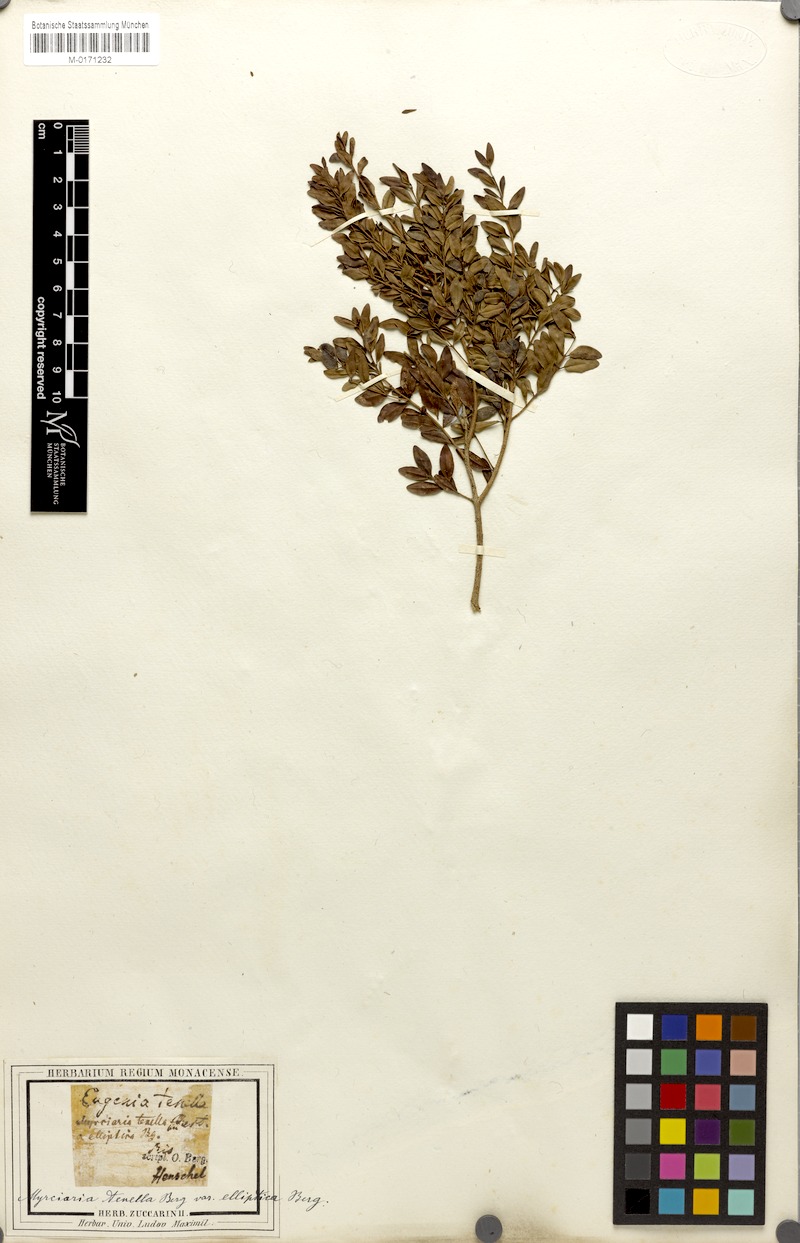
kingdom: Plantae
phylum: Tracheophyta
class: Magnoliopsida
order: Myrtales
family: Myrtaceae
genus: Myrciaria
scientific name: Myrciaria tenella
